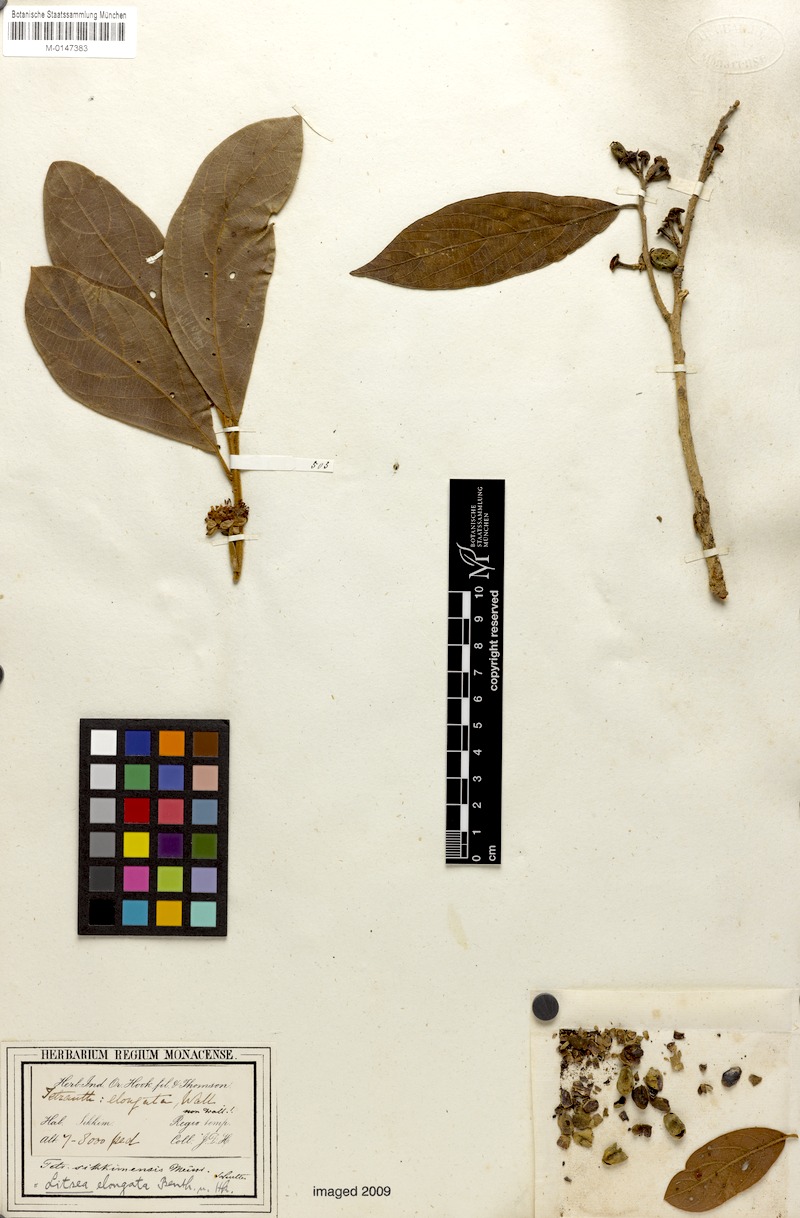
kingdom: Plantae
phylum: Tracheophyta
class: Magnoliopsida
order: Laurales
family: Lauraceae
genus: Litsea
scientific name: Litsea elongata
